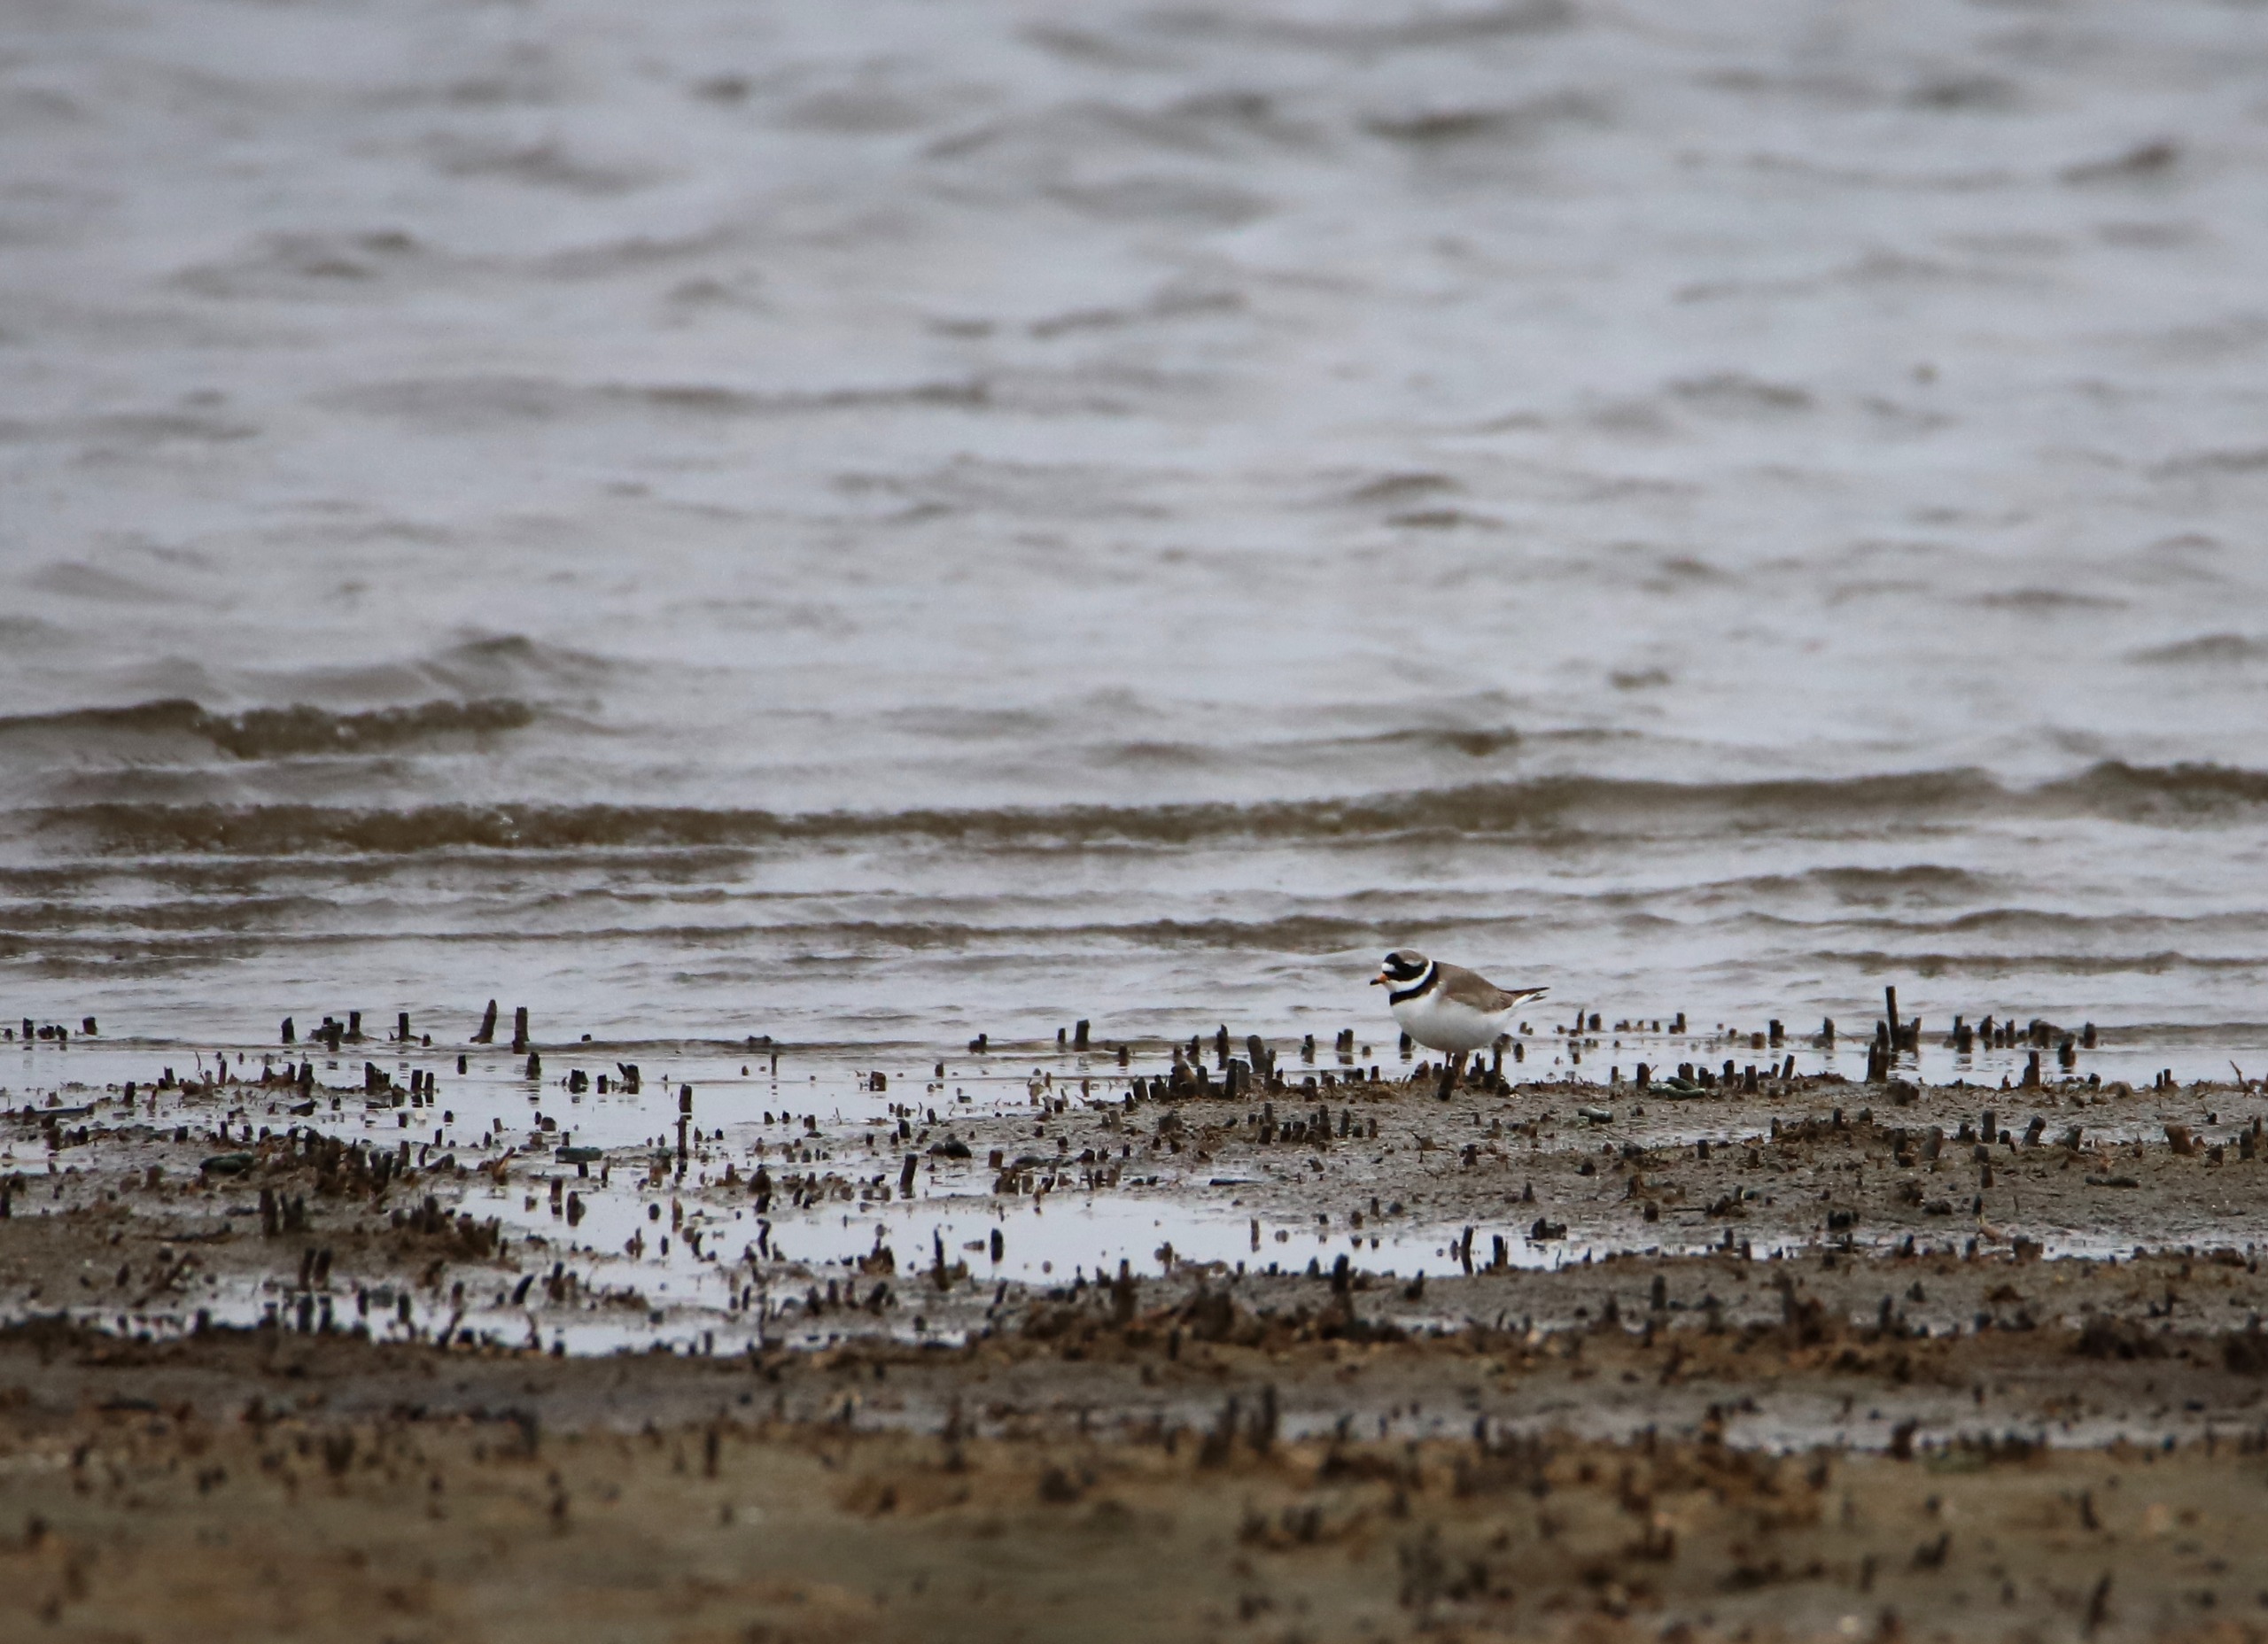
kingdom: Animalia
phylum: Chordata
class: Aves
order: Charadriiformes
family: Charadriidae
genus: Charadrius
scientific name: Charadrius hiaticula
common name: Stor præstekrave
